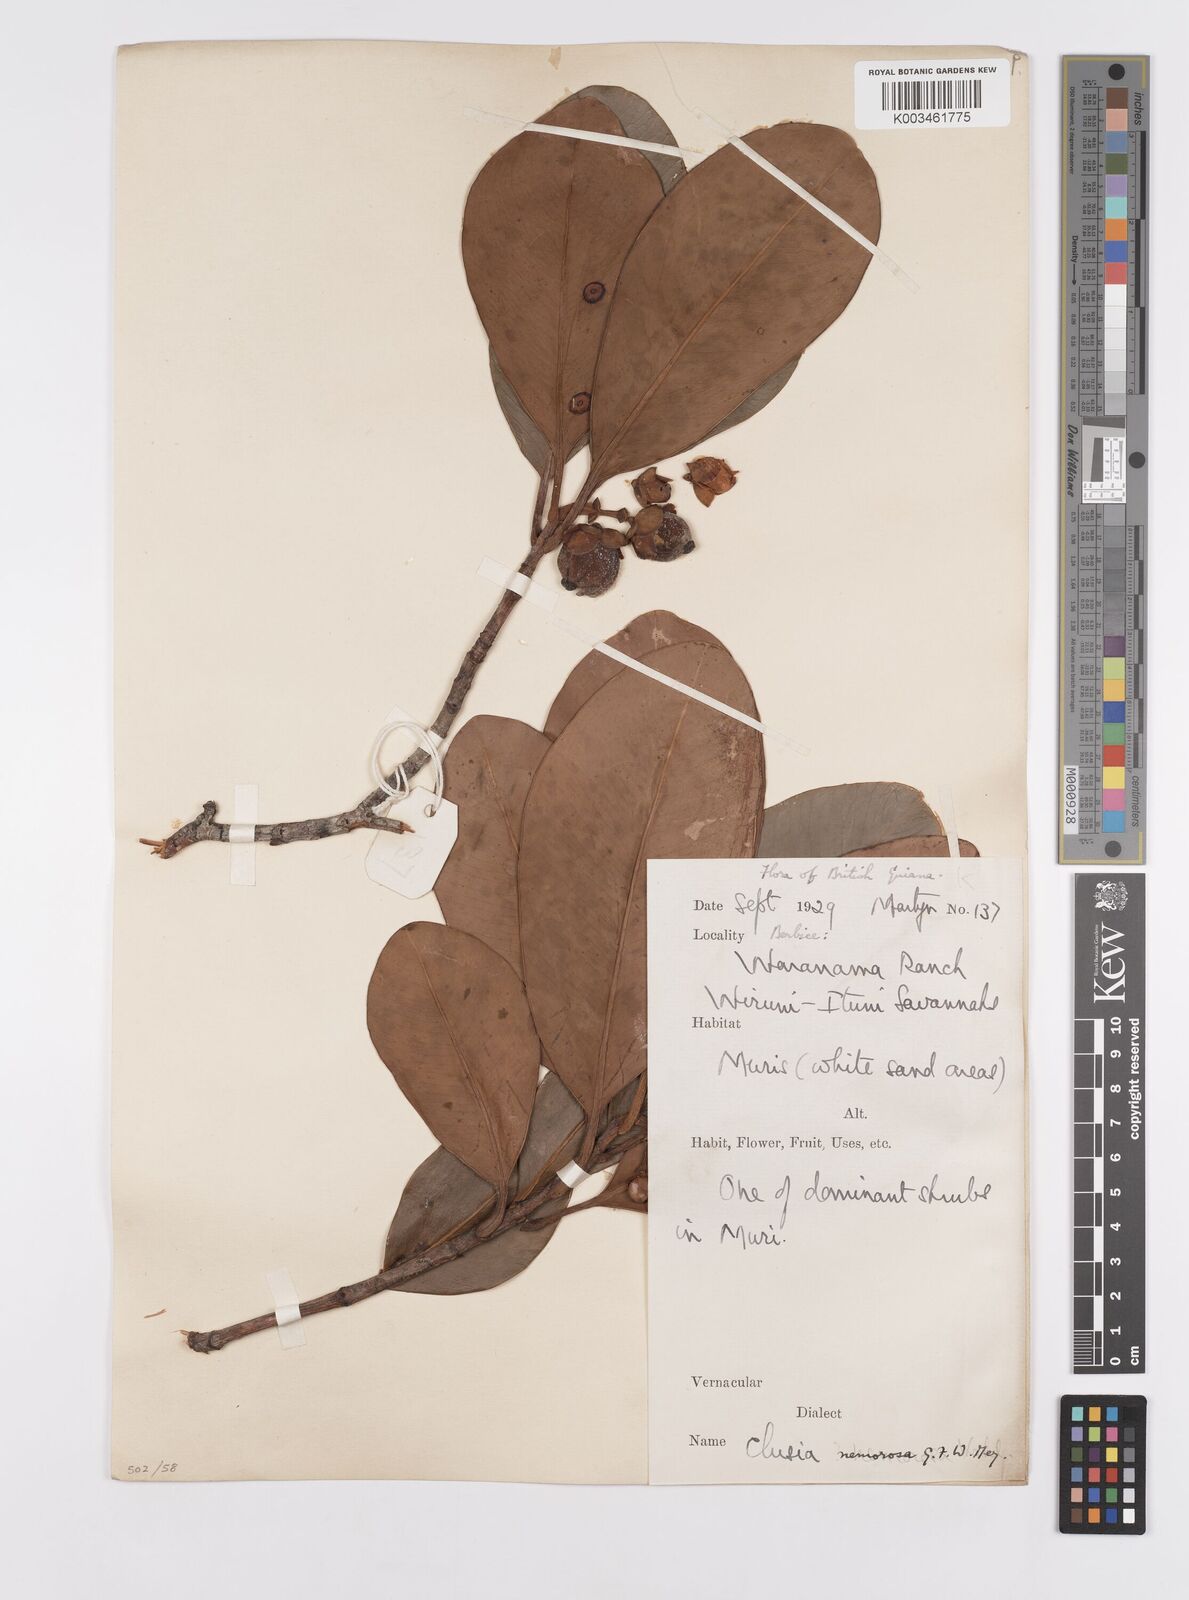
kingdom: Plantae
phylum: Tracheophyta
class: Magnoliopsida
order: Malpighiales
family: Clusiaceae
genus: Clusia
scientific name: Clusia nemorosa
